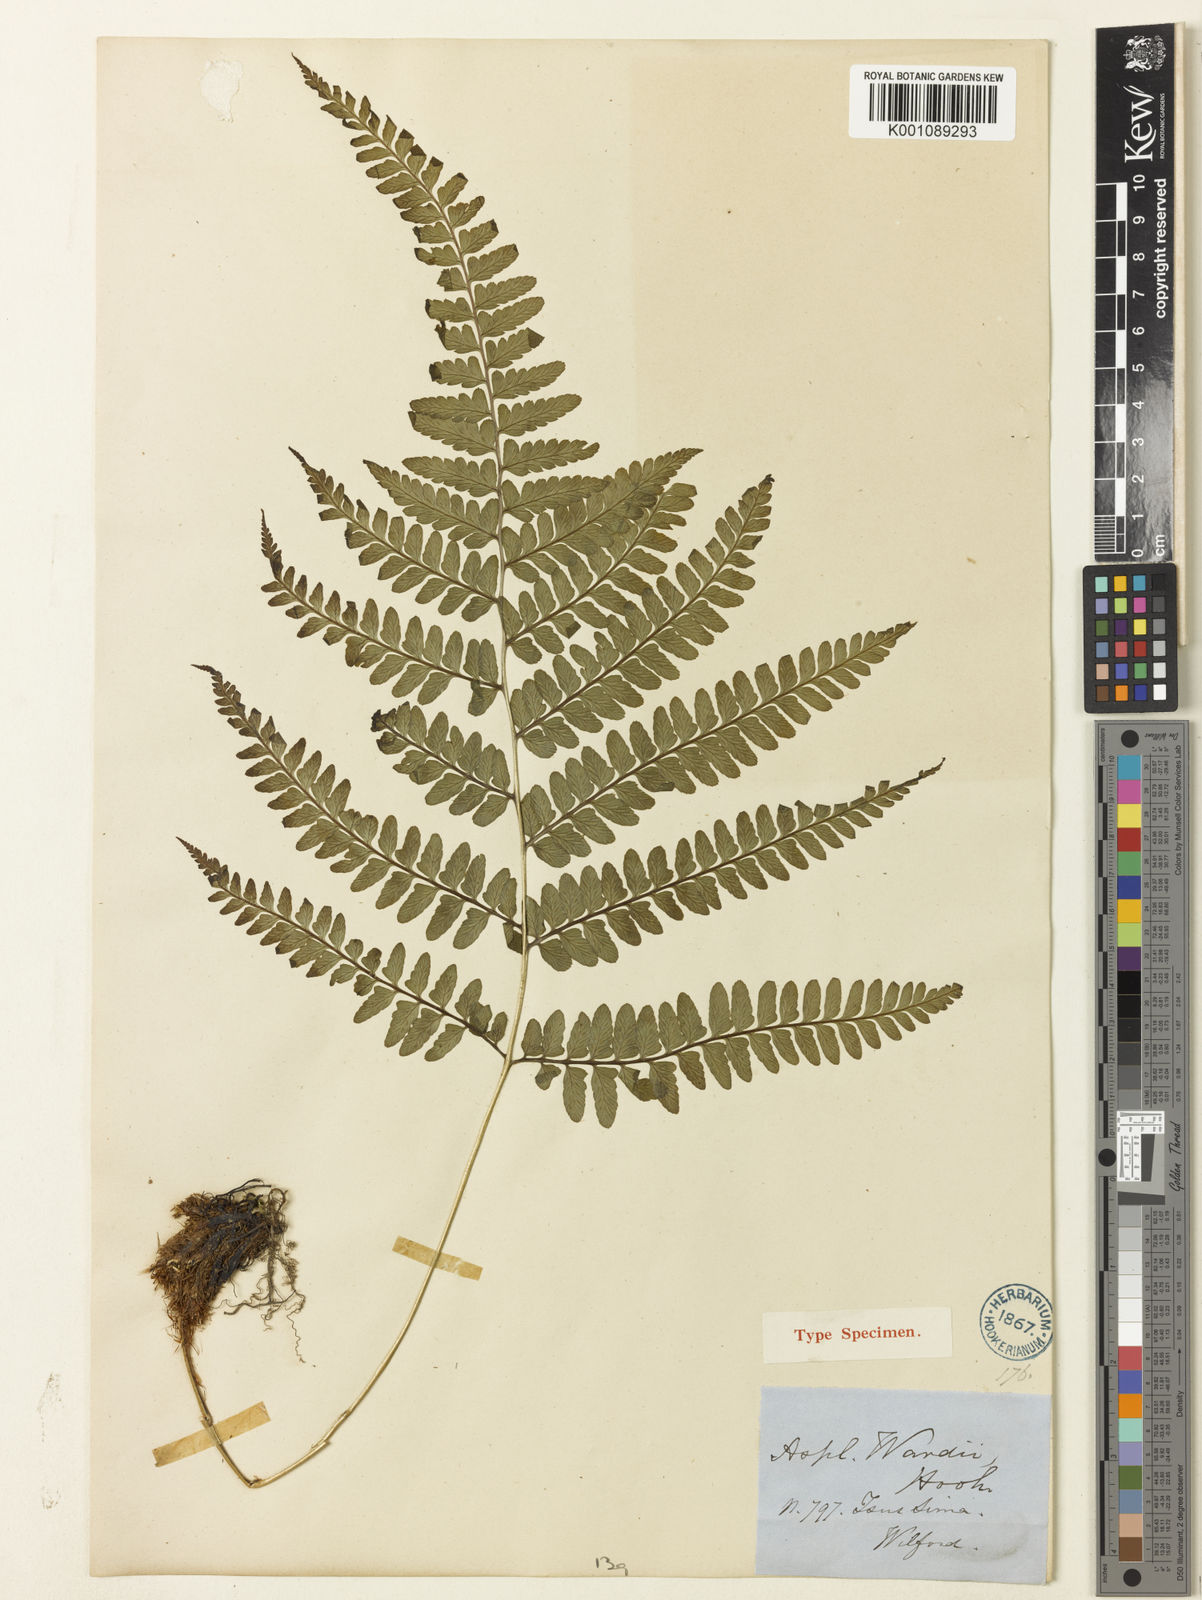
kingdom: Plantae
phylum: Tracheophyta
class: Polypodiopsida
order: Polypodiales
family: Athyriaceae
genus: Athyrium
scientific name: Athyrium wardii
